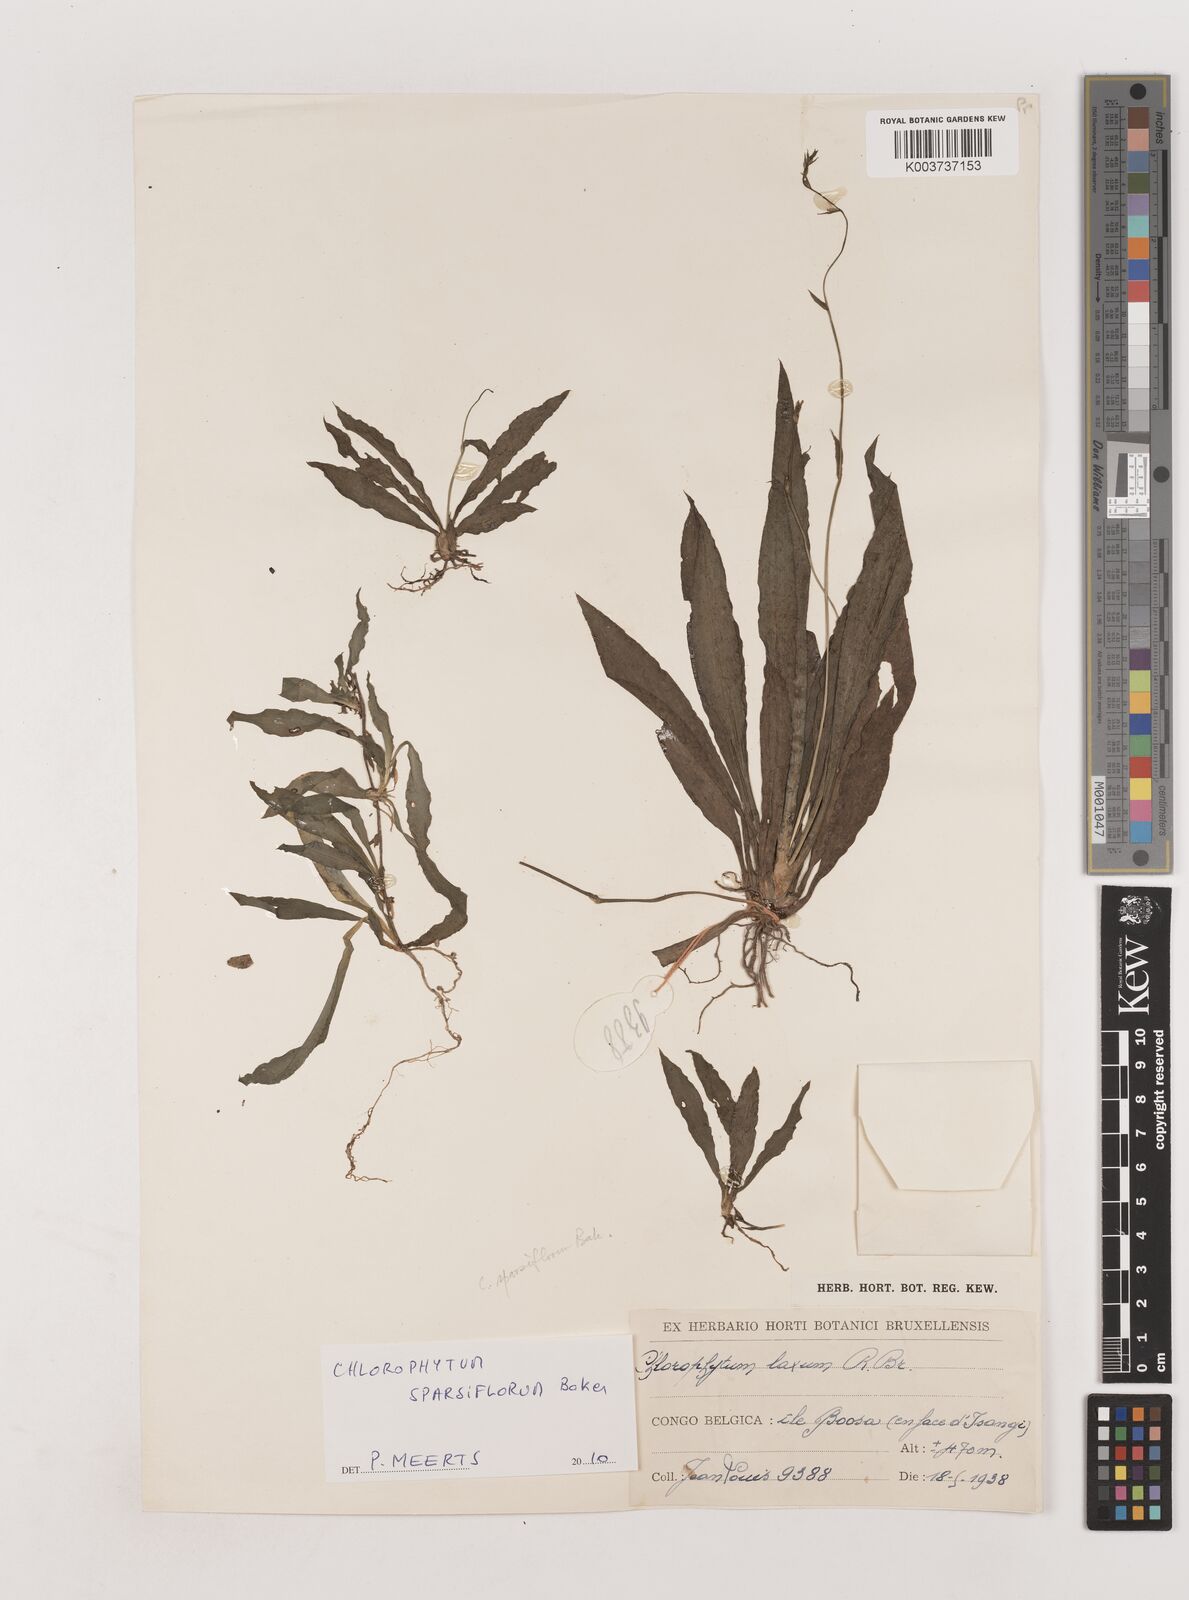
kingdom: Plantae
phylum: Tracheophyta
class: Liliopsida
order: Asparagales
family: Asparagaceae
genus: Chlorophytum
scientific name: Chlorophytum sparsiflorum
